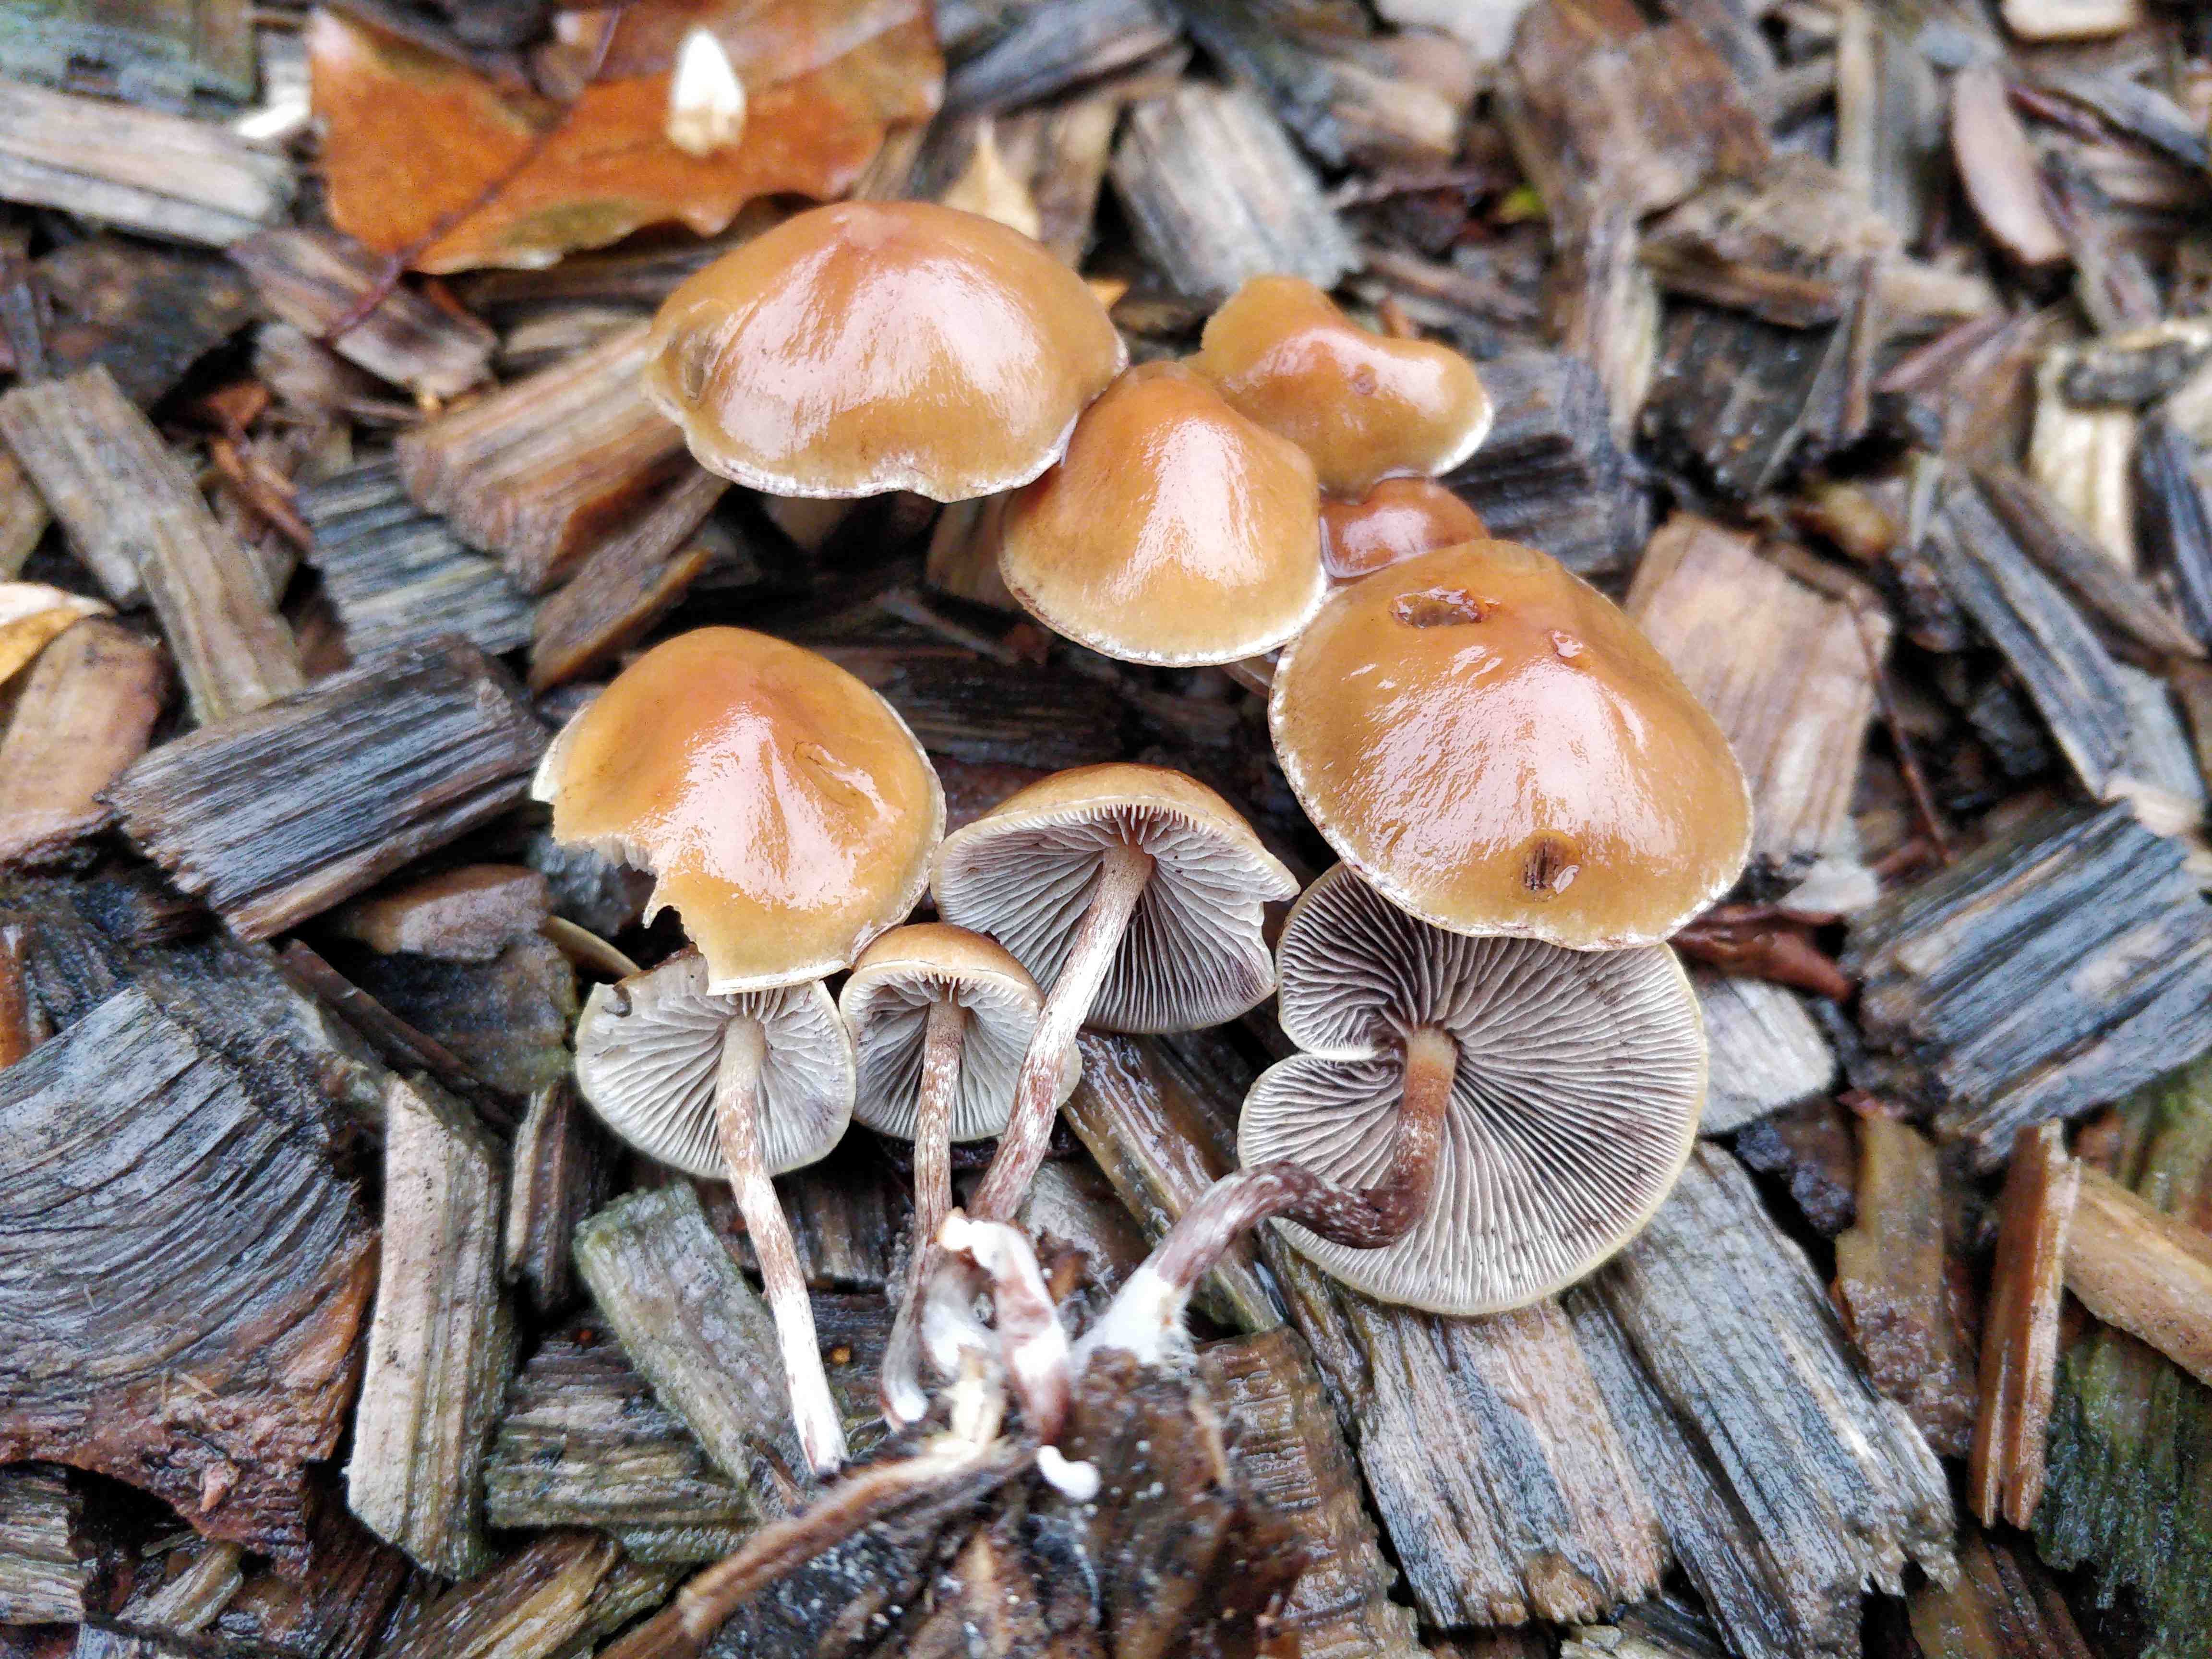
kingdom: Fungi
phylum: Basidiomycota
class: Agaricomycetes
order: Agaricales
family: Strophariaceae
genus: Hypholoma
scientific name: Hypholoma marginatum
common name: enlig svovlhat
